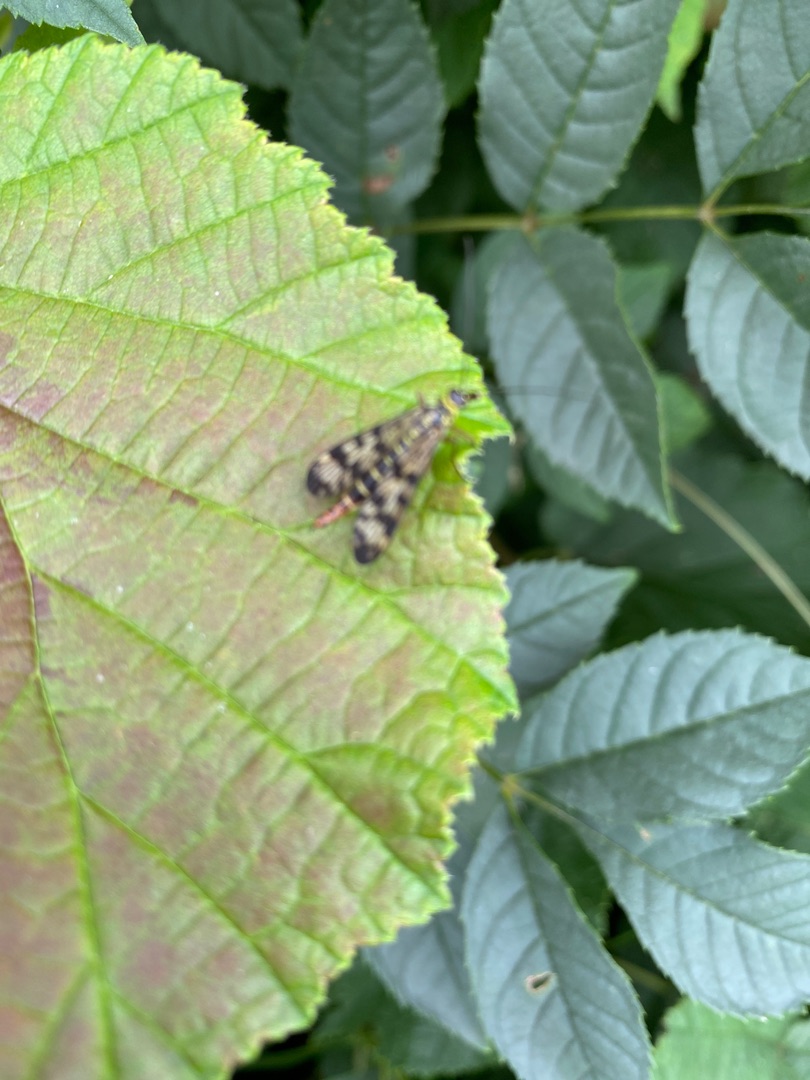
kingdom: Animalia
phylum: Arthropoda
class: Insecta
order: Mecoptera
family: Panorpidae
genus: Panorpa
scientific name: Panorpa
